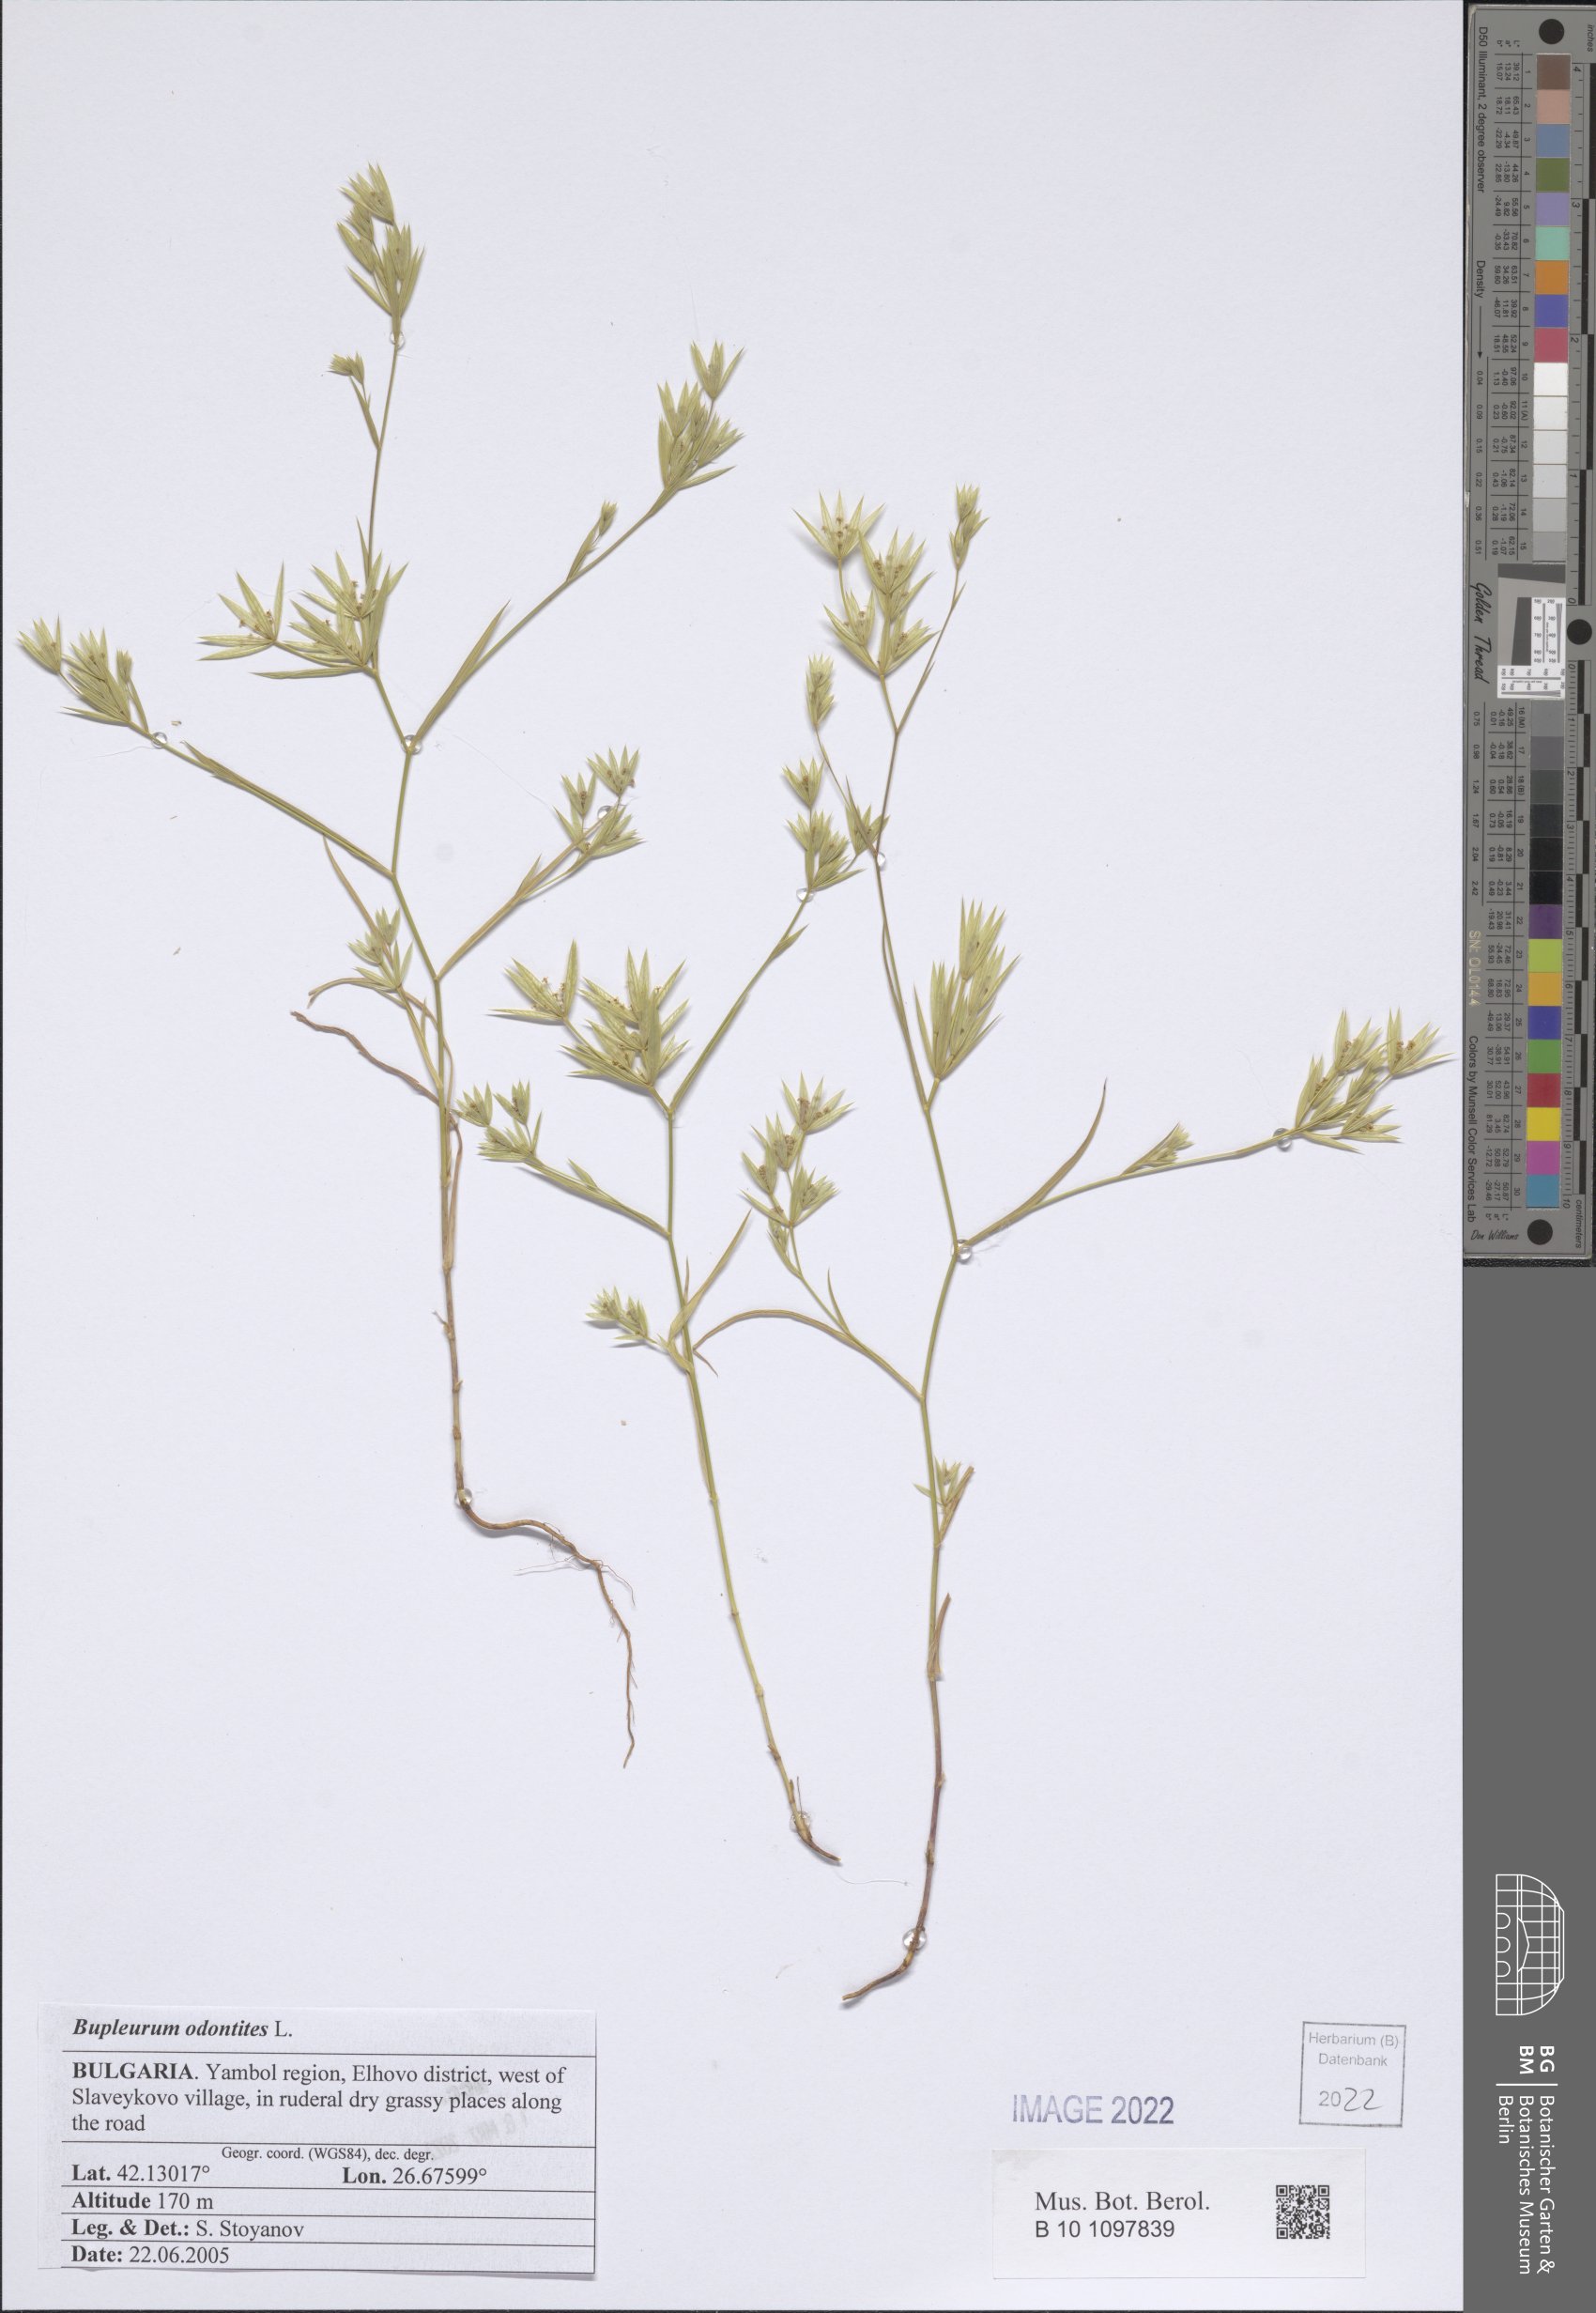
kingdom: Plantae
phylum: Tracheophyta
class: Magnoliopsida
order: Apiales
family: Apiaceae
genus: Bupleurum
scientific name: Bupleurum odontites
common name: Narrowleaf thorow wax
